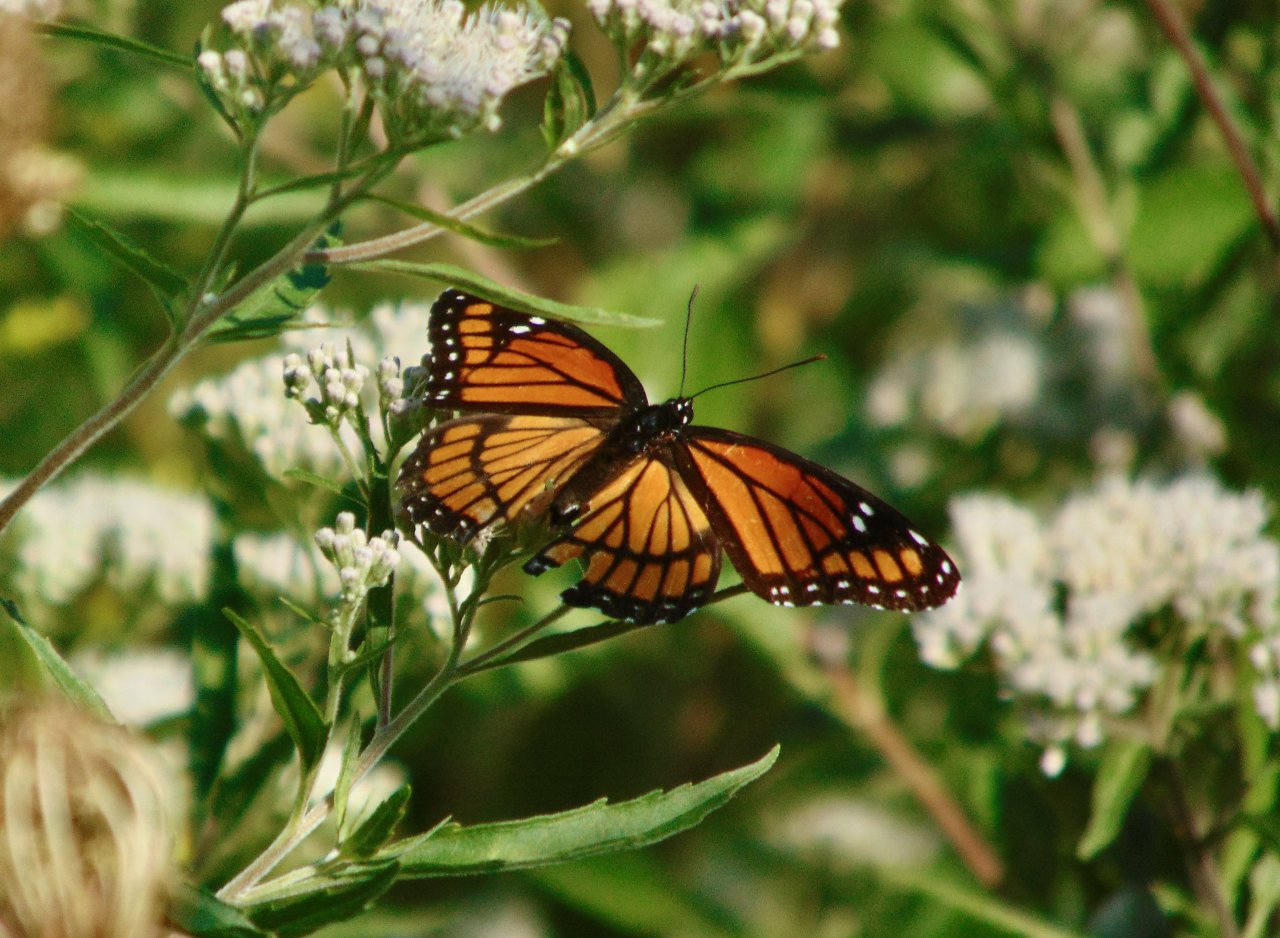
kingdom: Animalia
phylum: Arthropoda
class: Insecta
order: Lepidoptera
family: Nymphalidae
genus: Limenitis
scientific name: Limenitis archippus
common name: Viceroy
